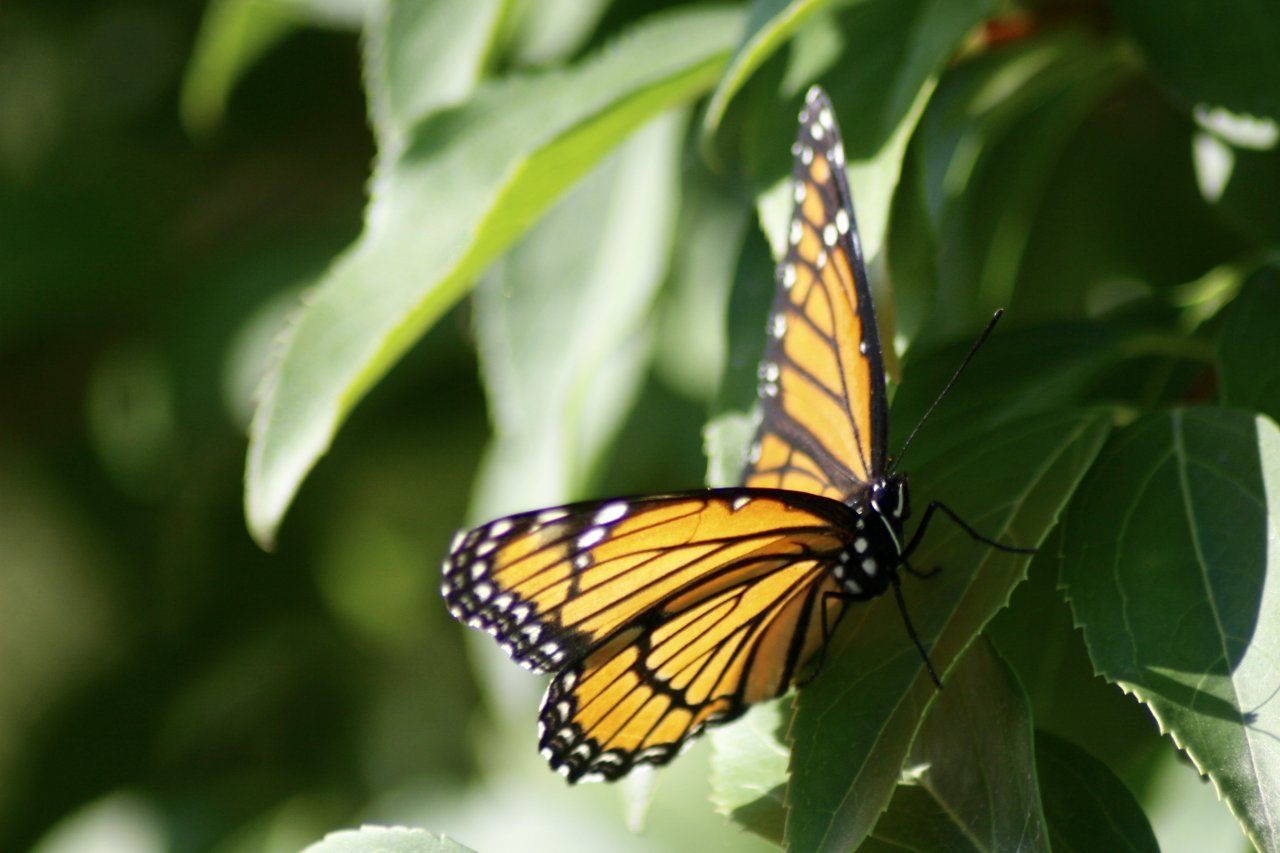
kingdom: Animalia
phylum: Arthropoda
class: Insecta
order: Lepidoptera
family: Nymphalidae
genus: Limenitis
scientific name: Limenitis archippus
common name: Viceroy
